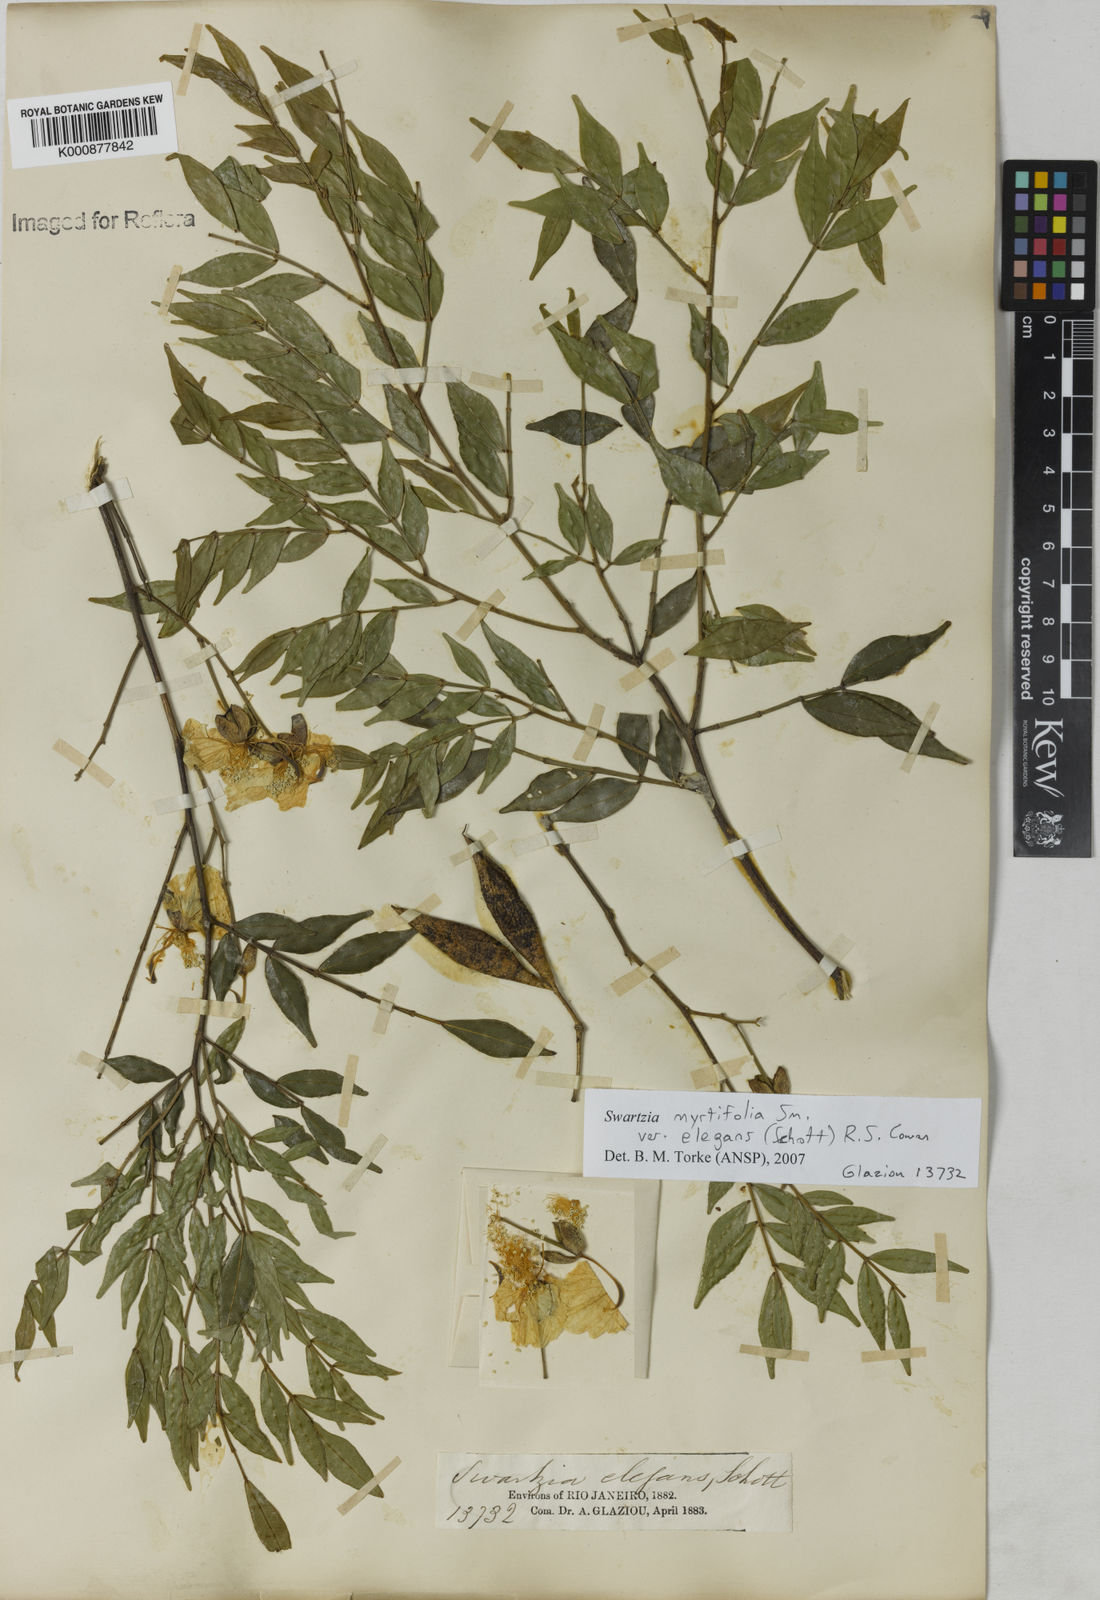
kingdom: Plantae
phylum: Tracheophyta
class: Magnoliopsida
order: Fabales
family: Fabaceae
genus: Swartzia
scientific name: Swartzia myrtifolia
